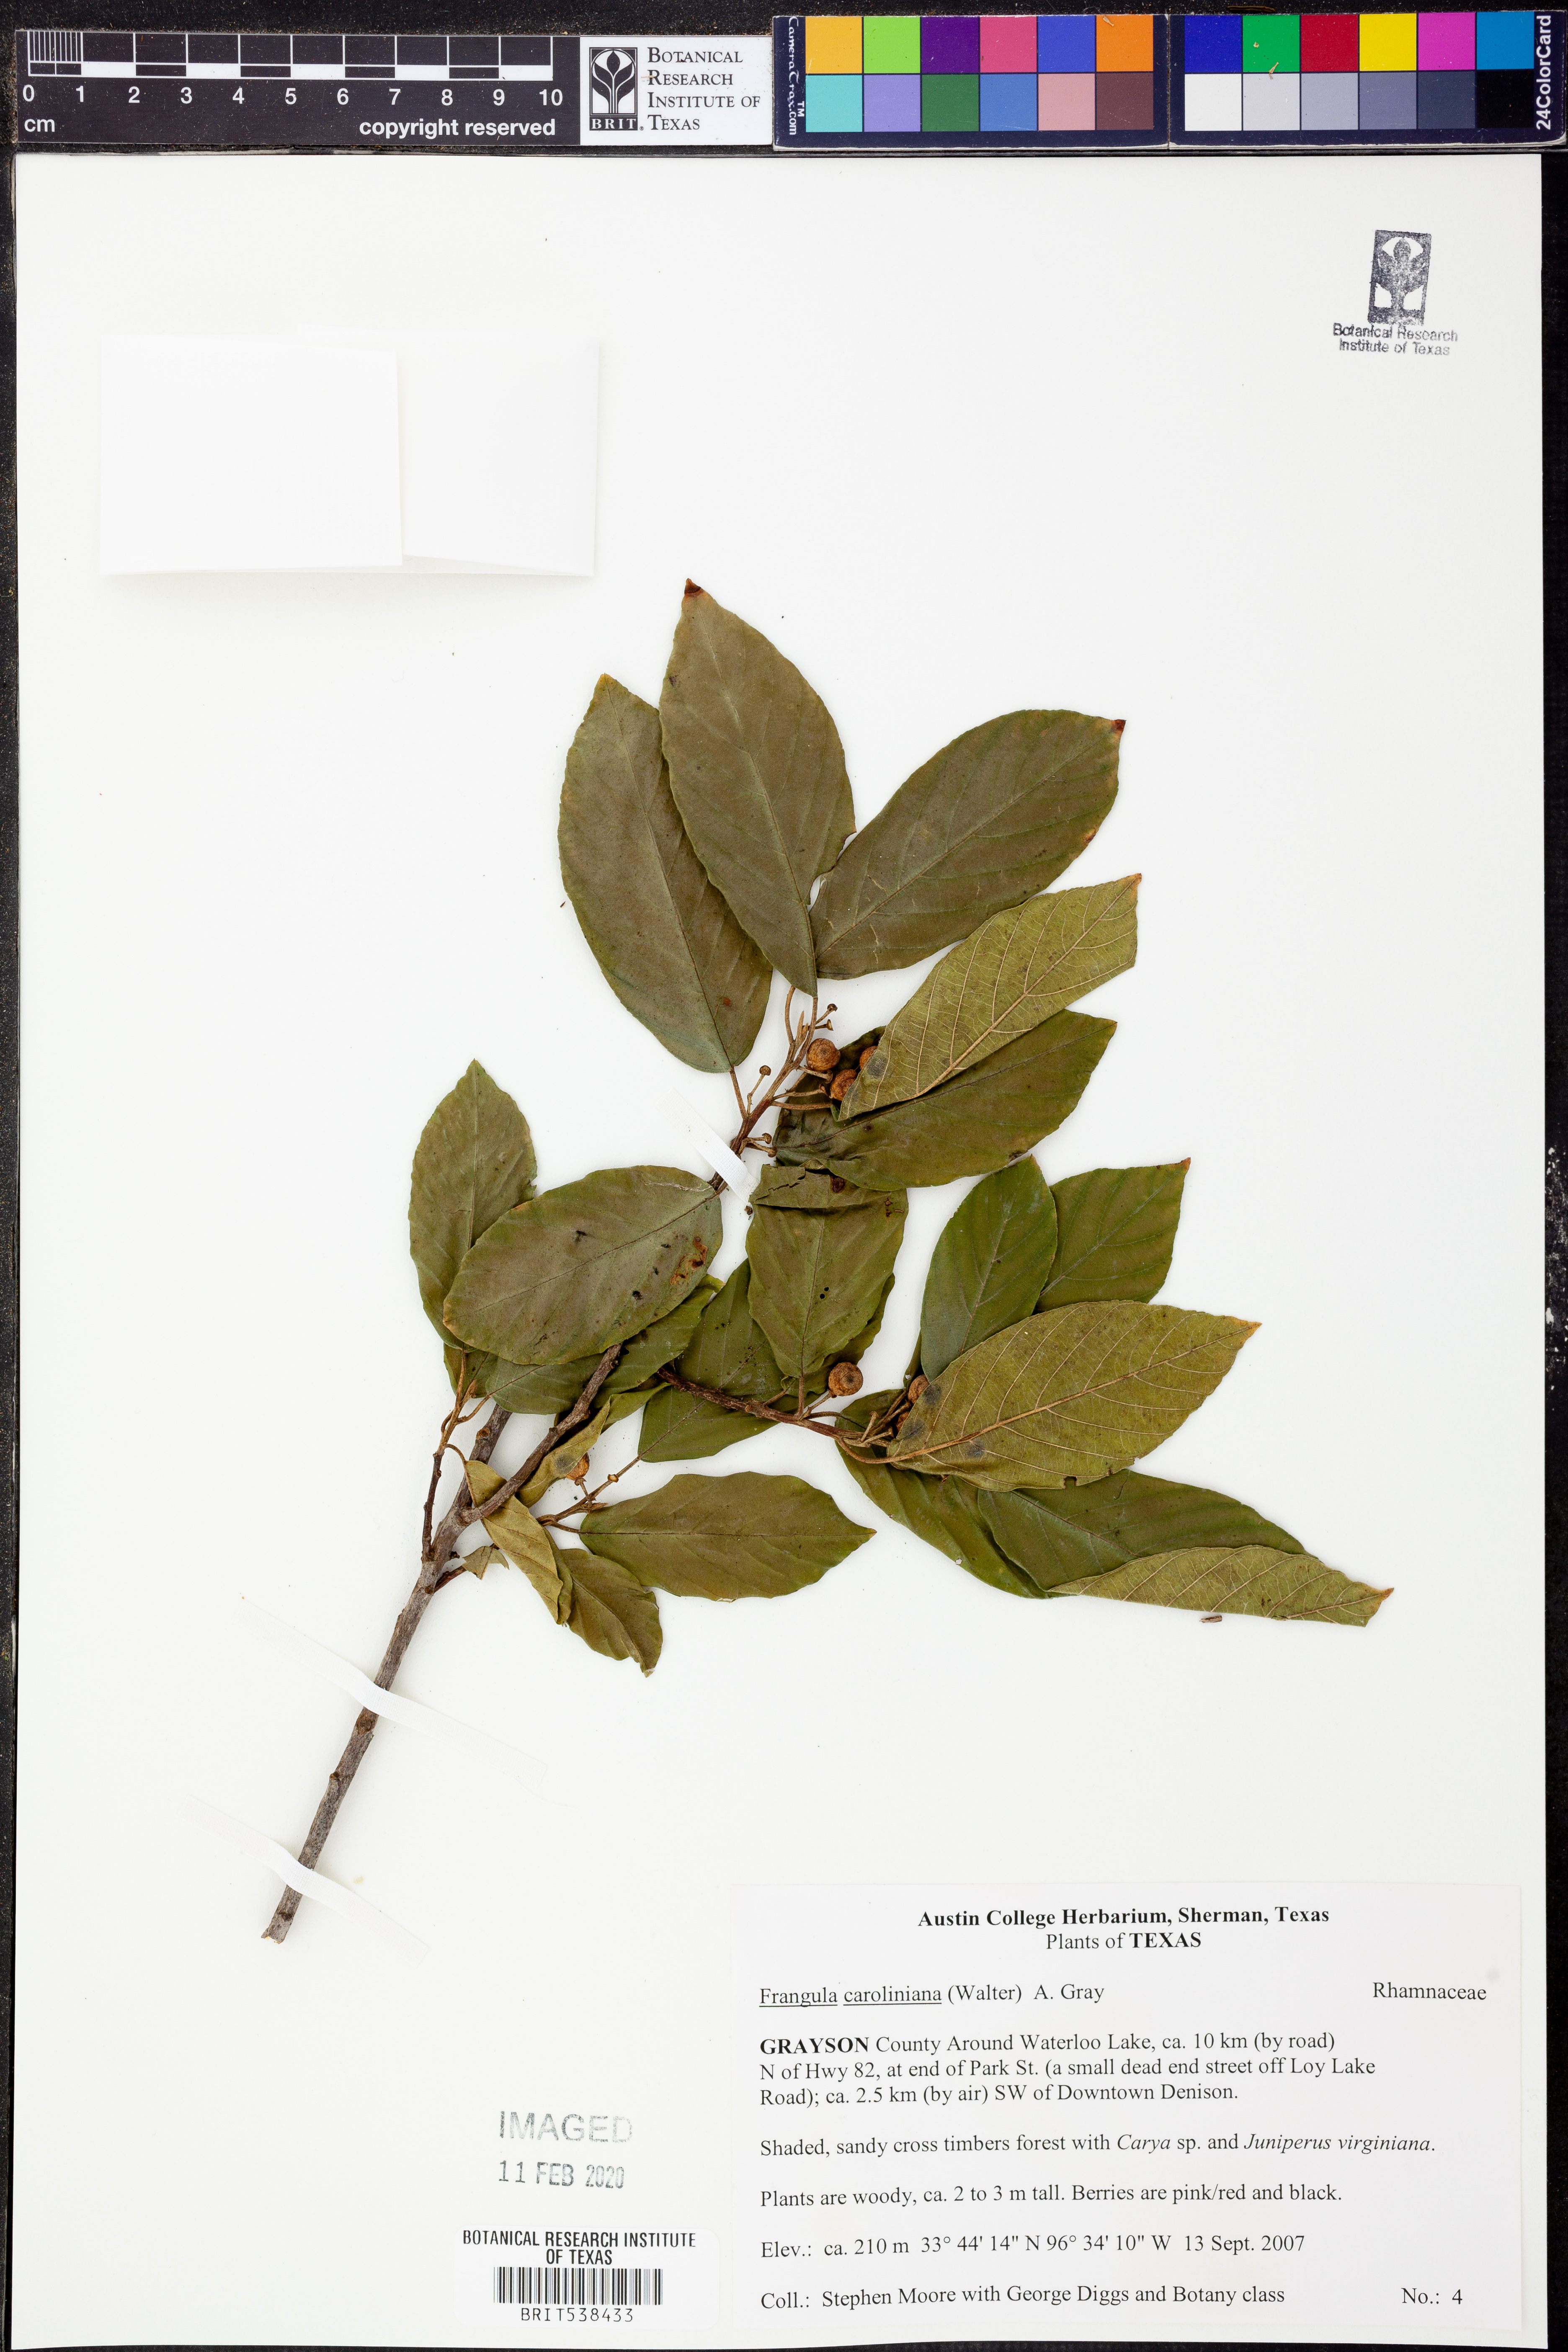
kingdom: Plantae
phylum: Tracheophyta
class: Magnoliopsida
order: Rosales
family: Rhamnaceae
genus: Frangula
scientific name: Frangula caroliniana
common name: Carolina buckthorn
